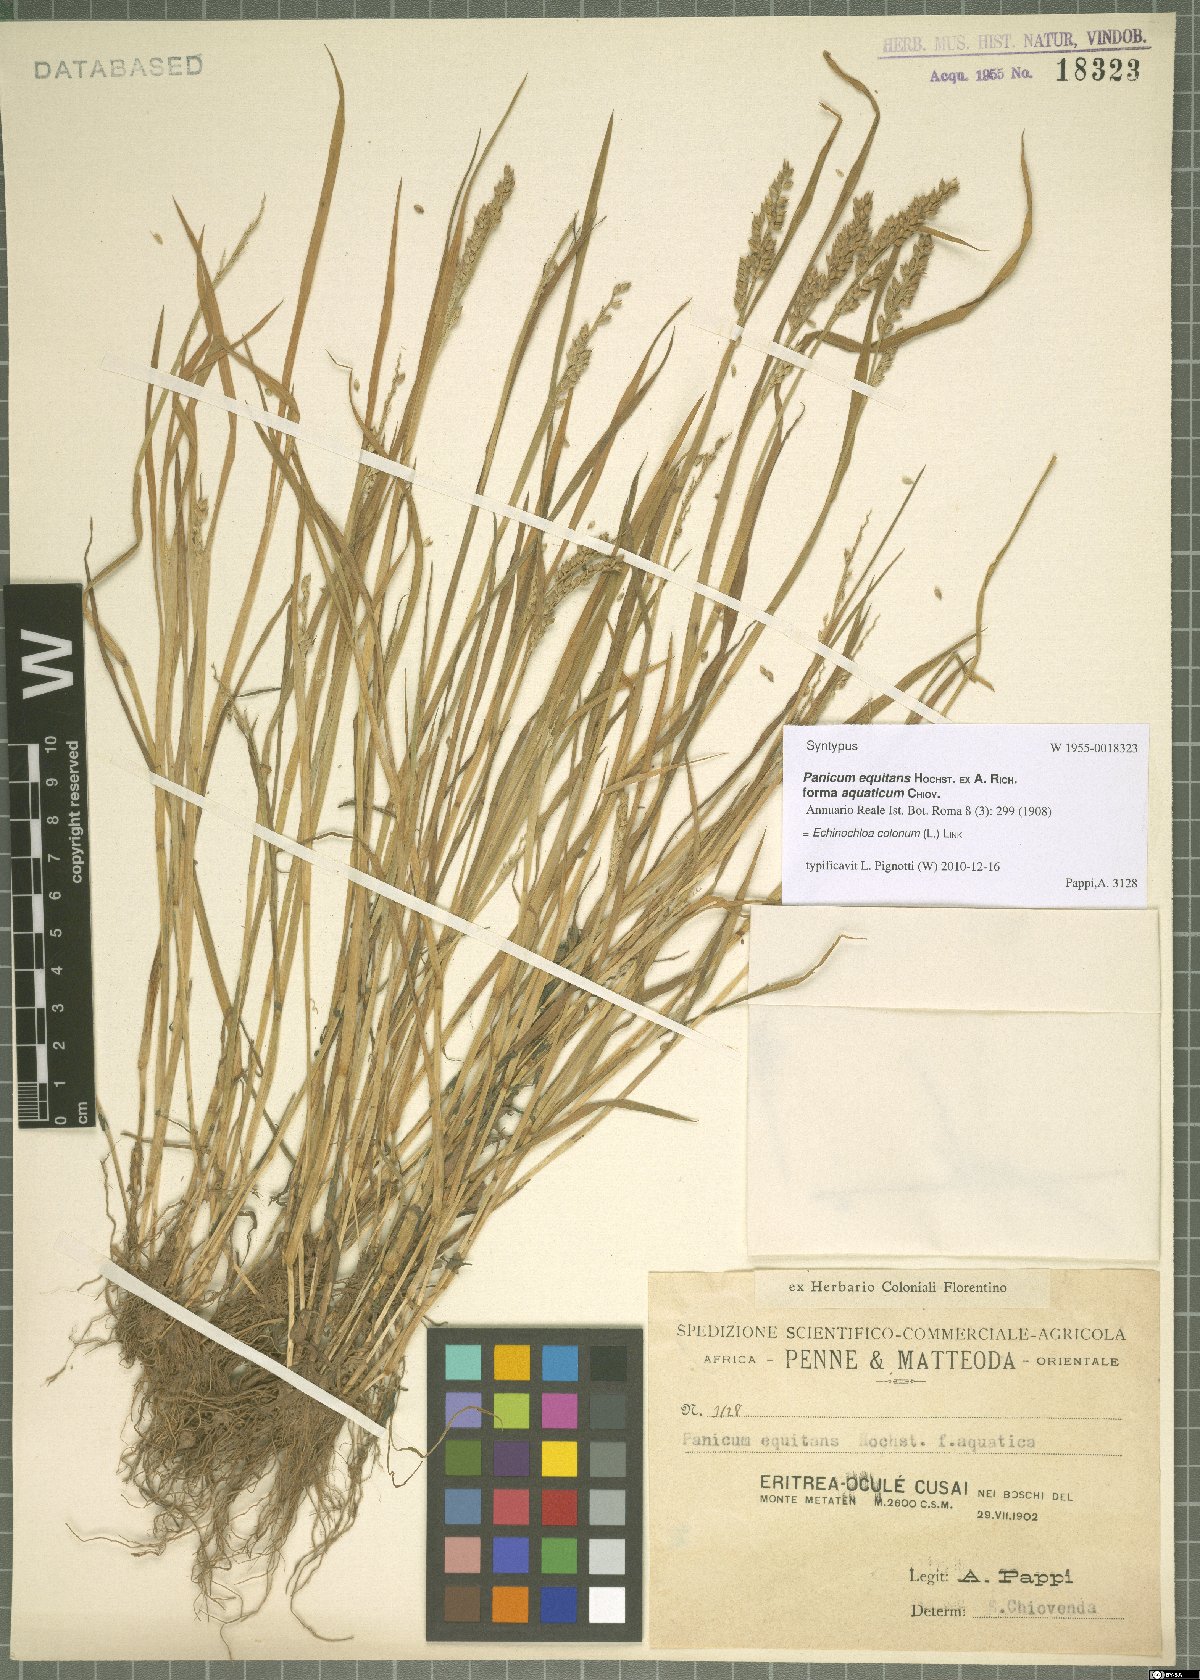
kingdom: Plantae
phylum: Tracheophyta
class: Liliopsida
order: Poales
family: Poaceae
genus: Echinochloa
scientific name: Echinochloa colonum
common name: Jungle rice
